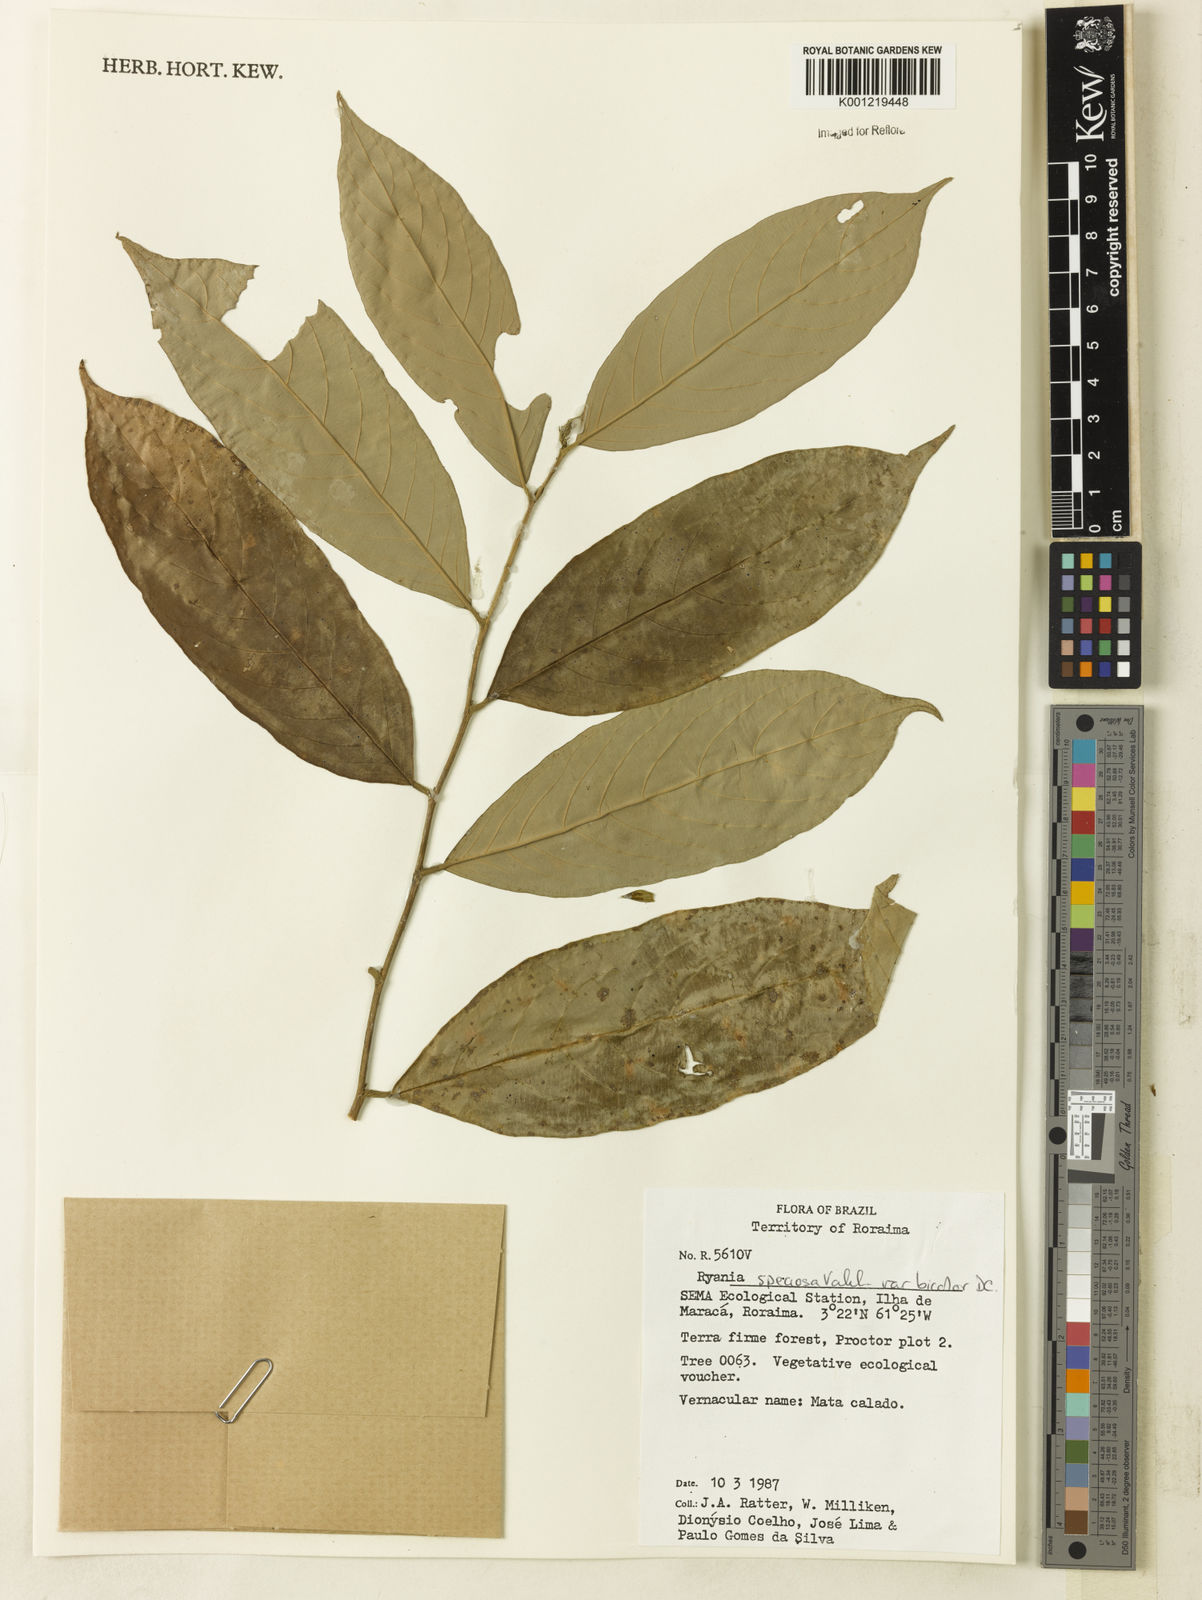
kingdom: Plantae
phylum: Tracheophyta
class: Magnoliopsida
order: Malpighiales
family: Salicaceae
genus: Ryania
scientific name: Ryania speciosa
